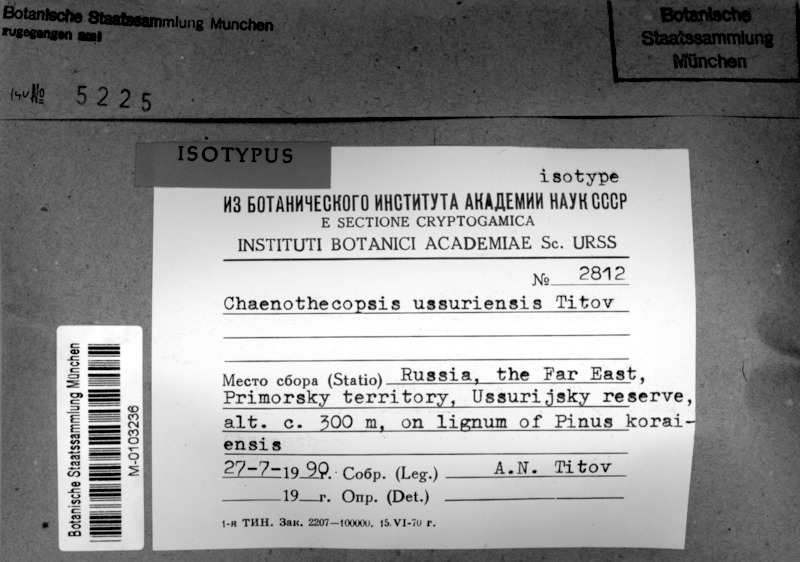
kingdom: Fungi
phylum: Ascomycota
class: Eurotiomycetes
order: Mycocaliciales
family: Mycocaliciaceae
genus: Chaenothecopsis
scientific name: Chaenothecopsis ussuriensis
